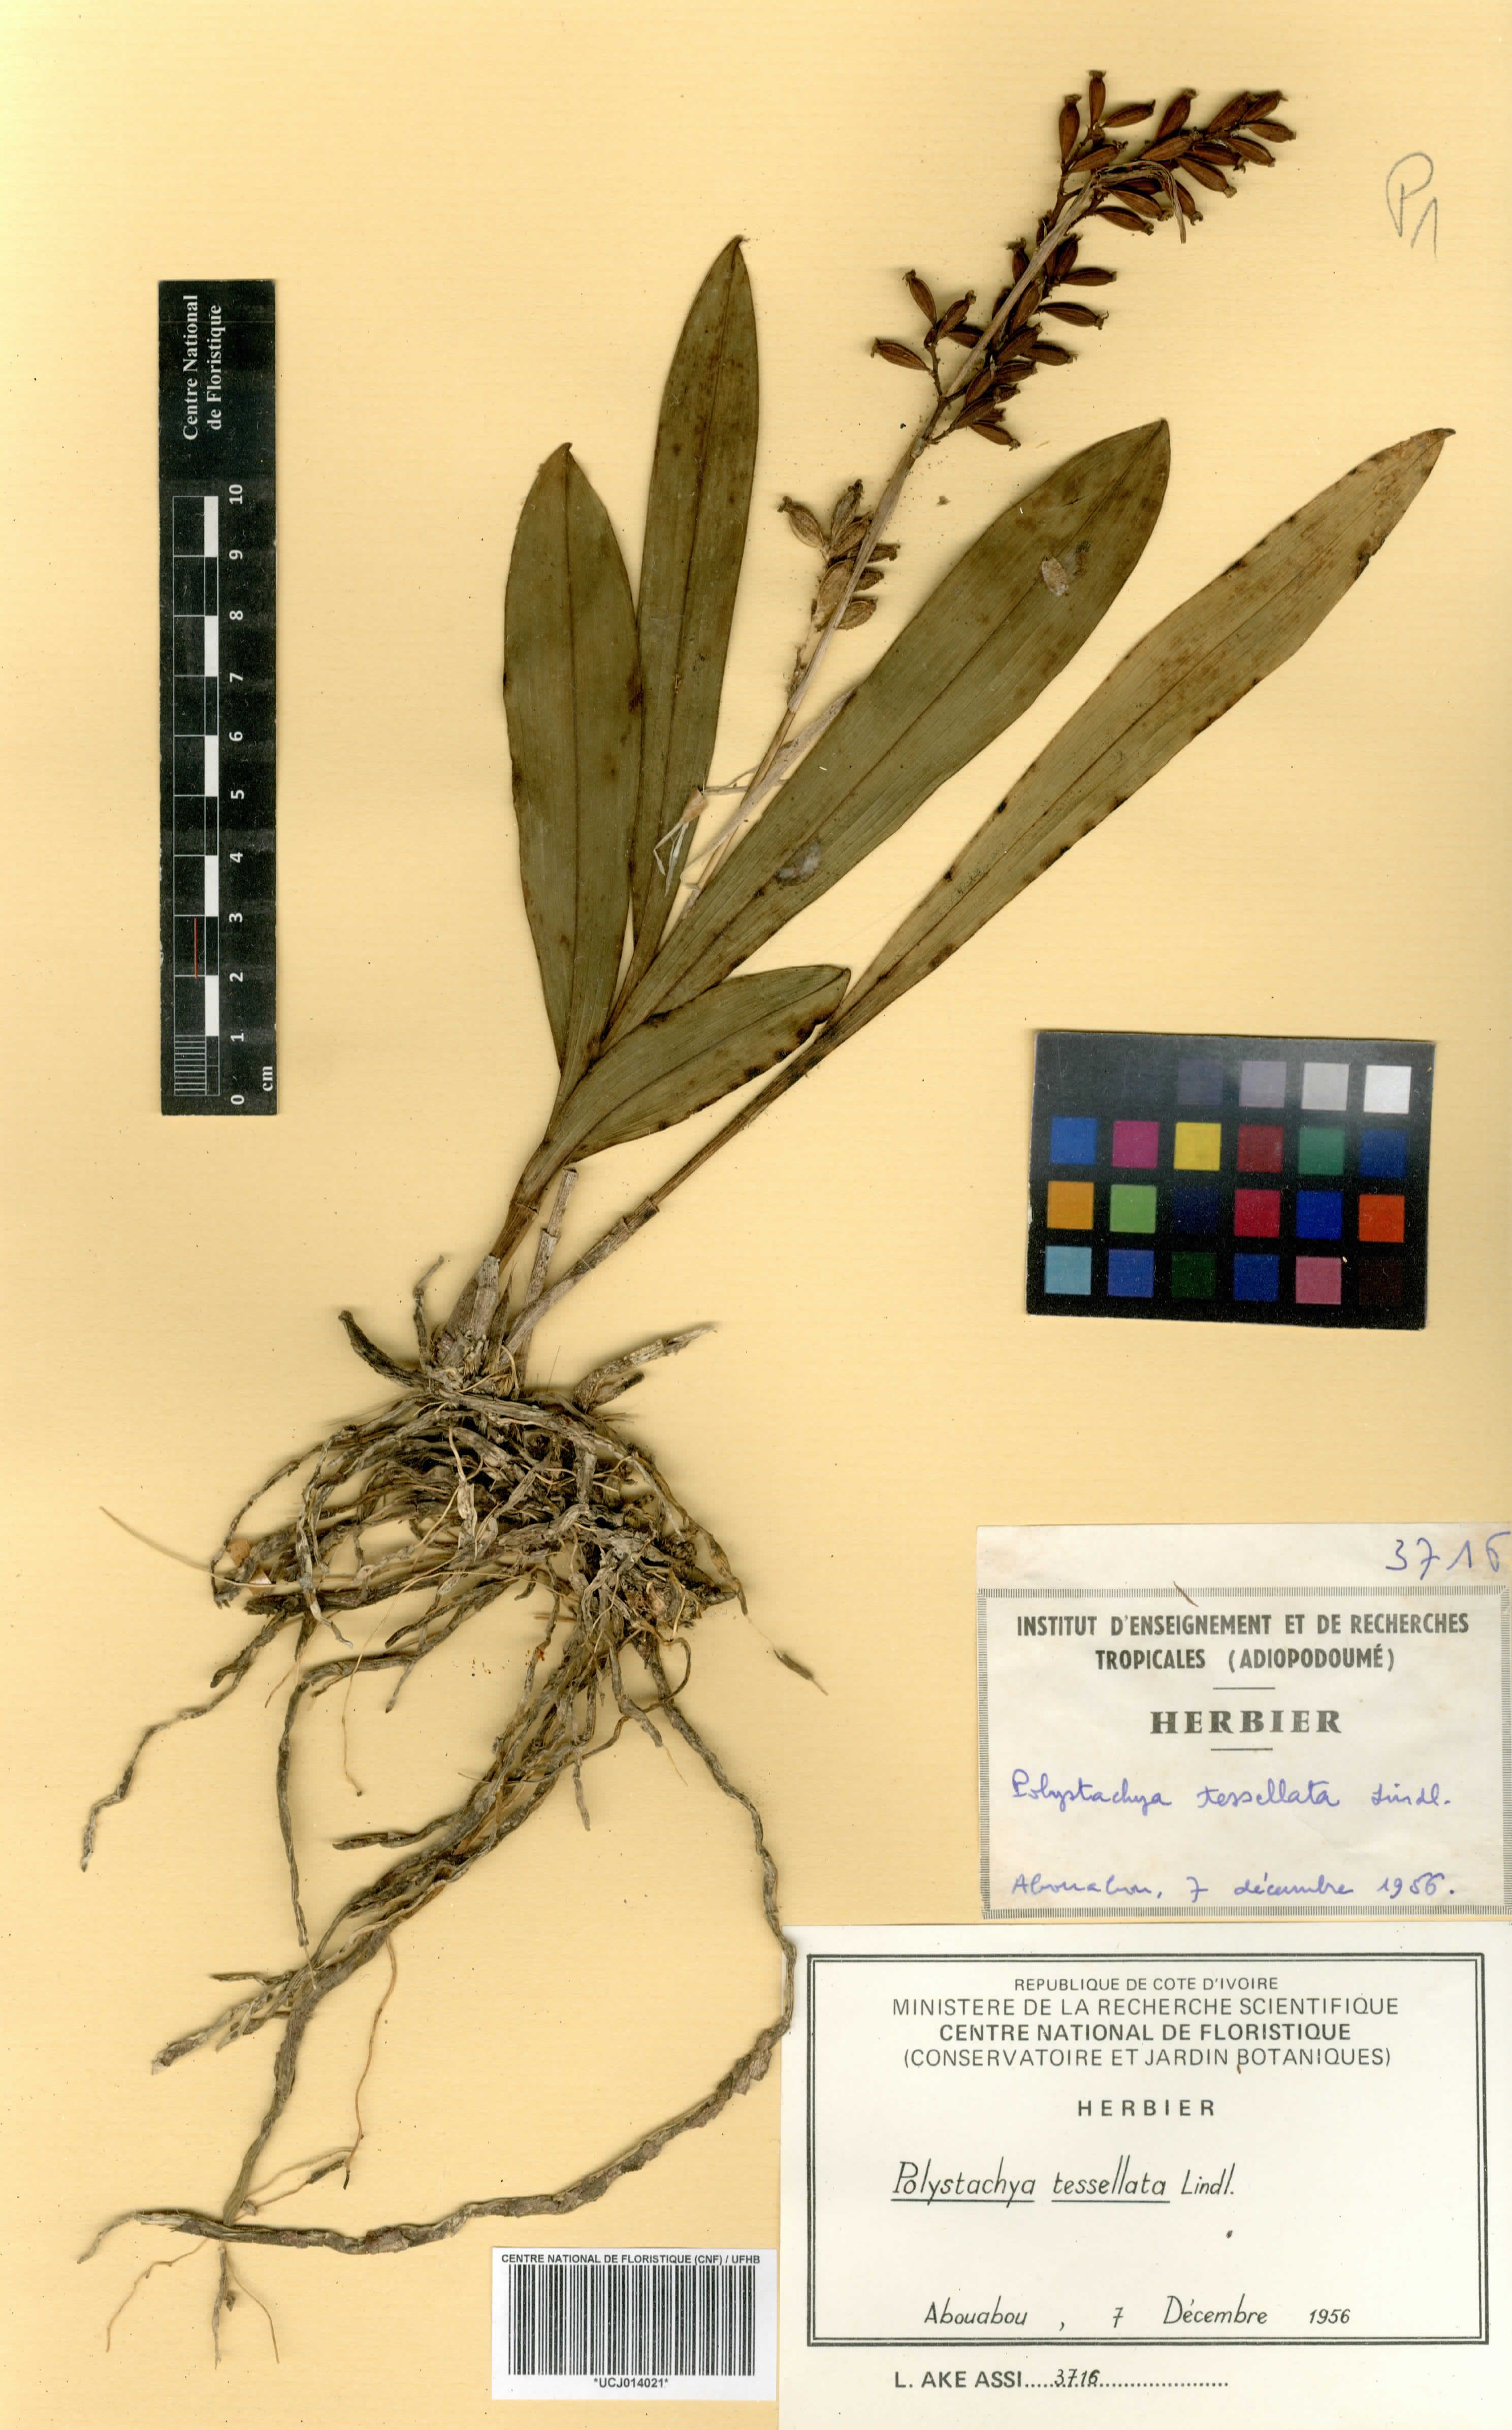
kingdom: Plantae
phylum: Tracheophyta
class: Liliopsida
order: Asparagales
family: Orchidaceae
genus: Polystachya
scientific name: Polystachya concreta
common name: Greater yellowspike orchid
